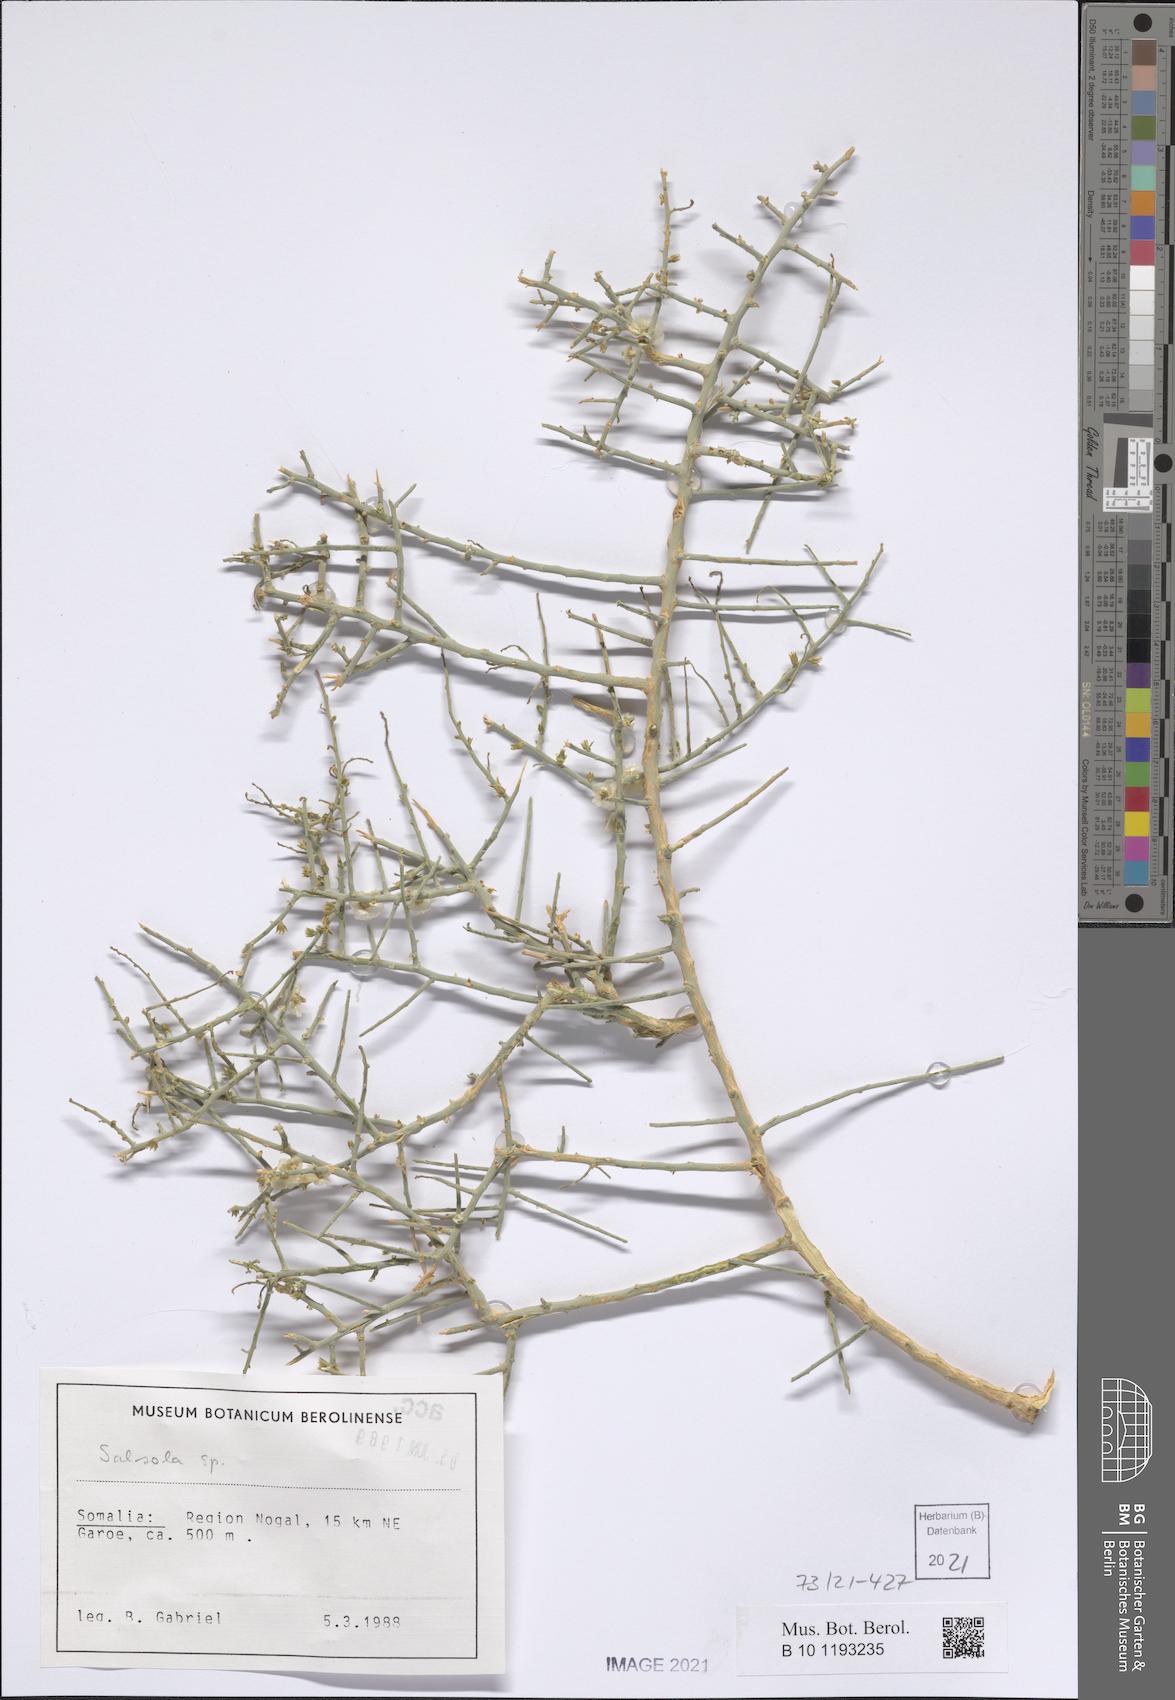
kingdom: Plantae
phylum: Tracheophyta
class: Magnoliopsida
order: Caryophyllales
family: Amaranthaceae
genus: Salsola
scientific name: Salsola
